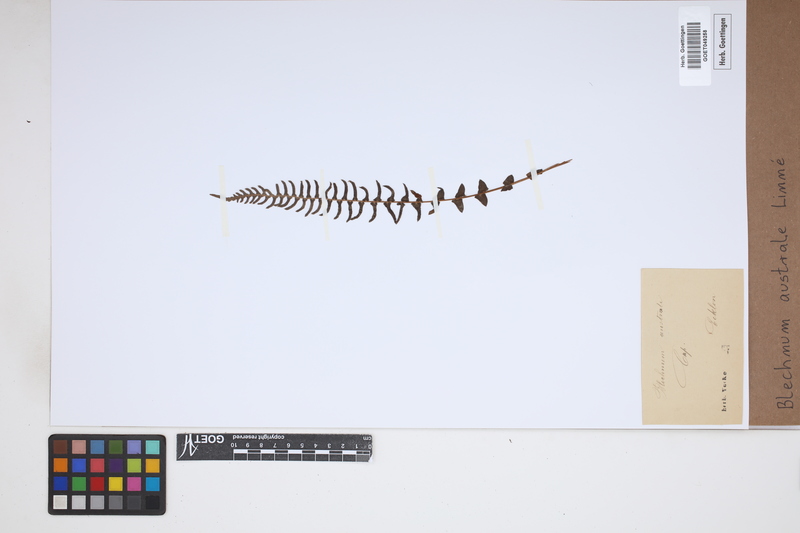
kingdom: Plantae
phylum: Tracheophyta
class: Polypodiopsida
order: Polypodiales
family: Blechnaceae
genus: Blechnum
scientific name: Blechnum australe
